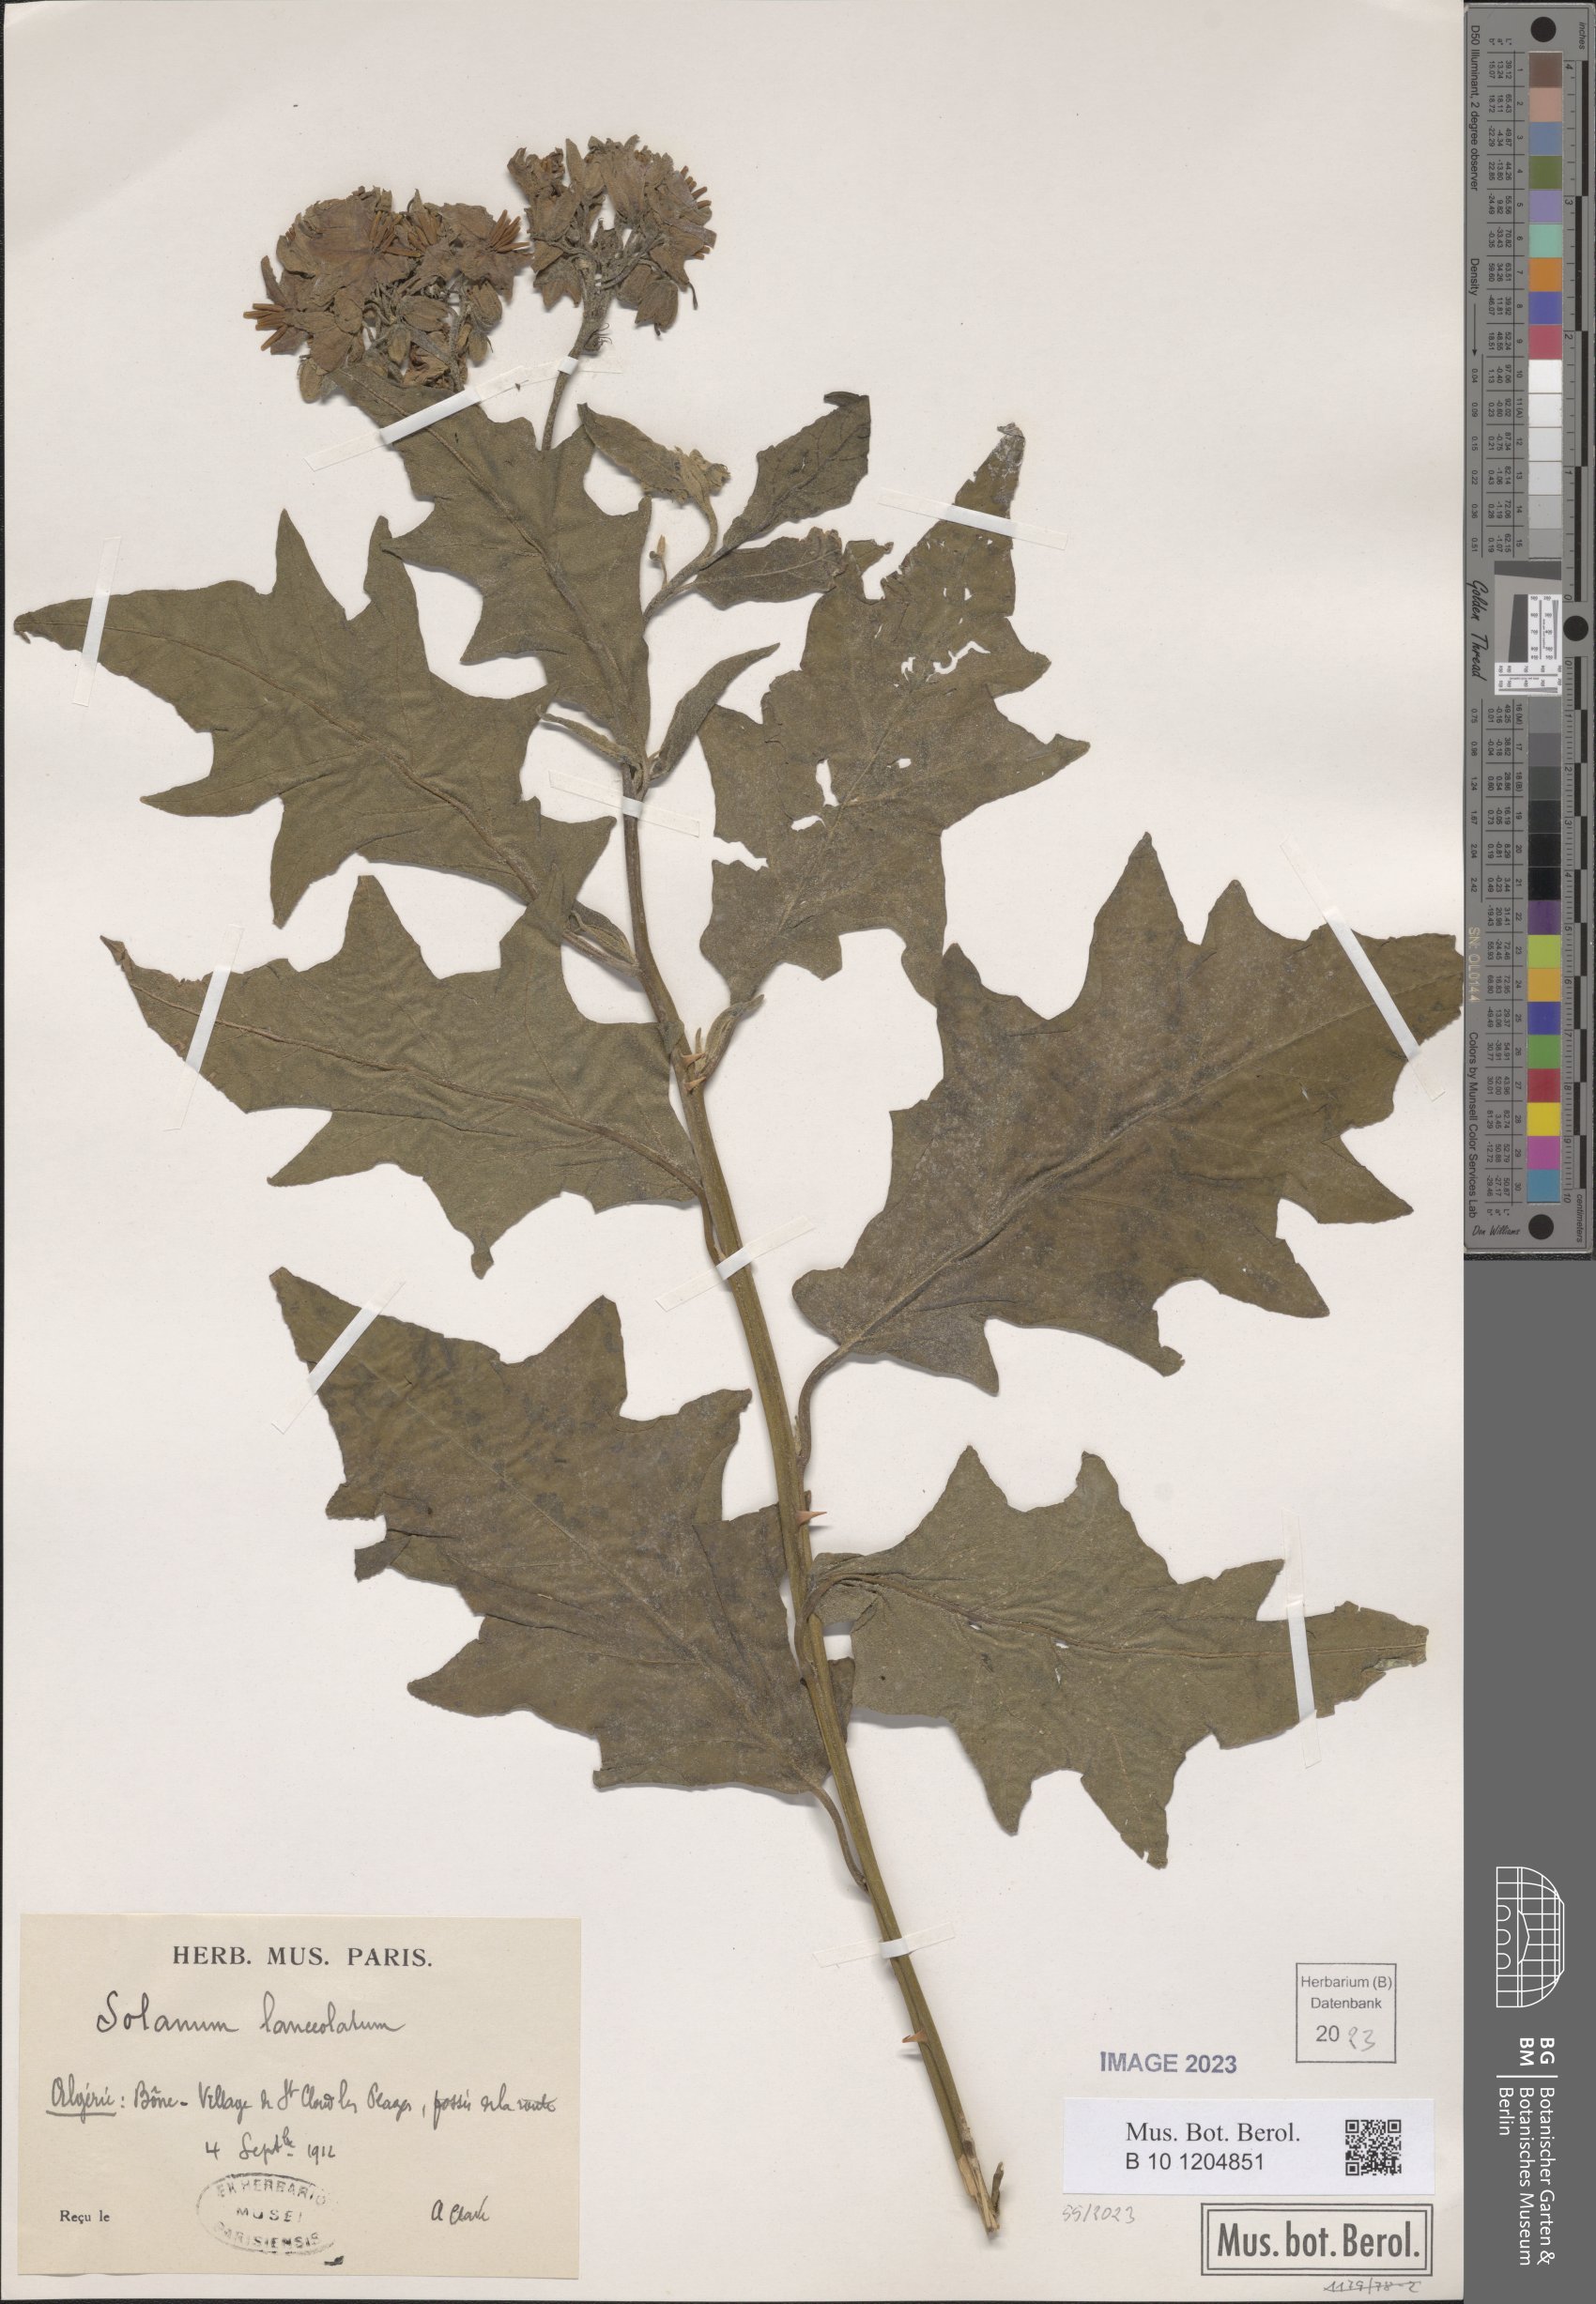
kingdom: Plantae
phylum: Tracheophyta
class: Magnoliopsida
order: Solanales
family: Solanaceae
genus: Solanum
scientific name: Solanum lanceolatum
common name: Orangeberry nightshade
